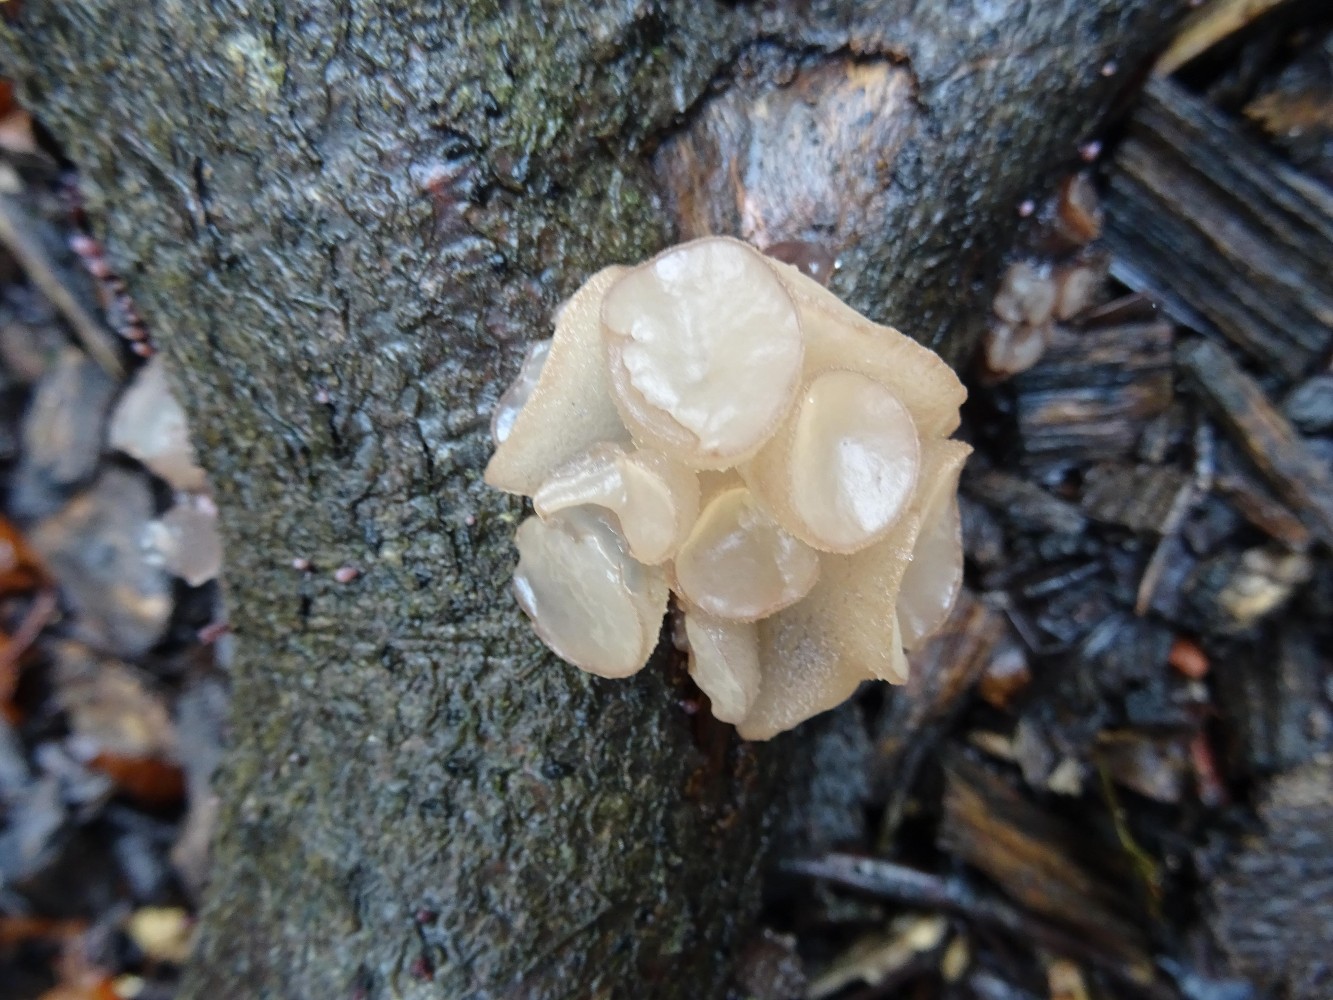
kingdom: Fungi
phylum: Ascomycota
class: Leotiomycetes
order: Helotiales
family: Gelatinodiscaceae
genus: Neobulgaria
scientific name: Neobulgaria pura
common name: bleg bævreskive
